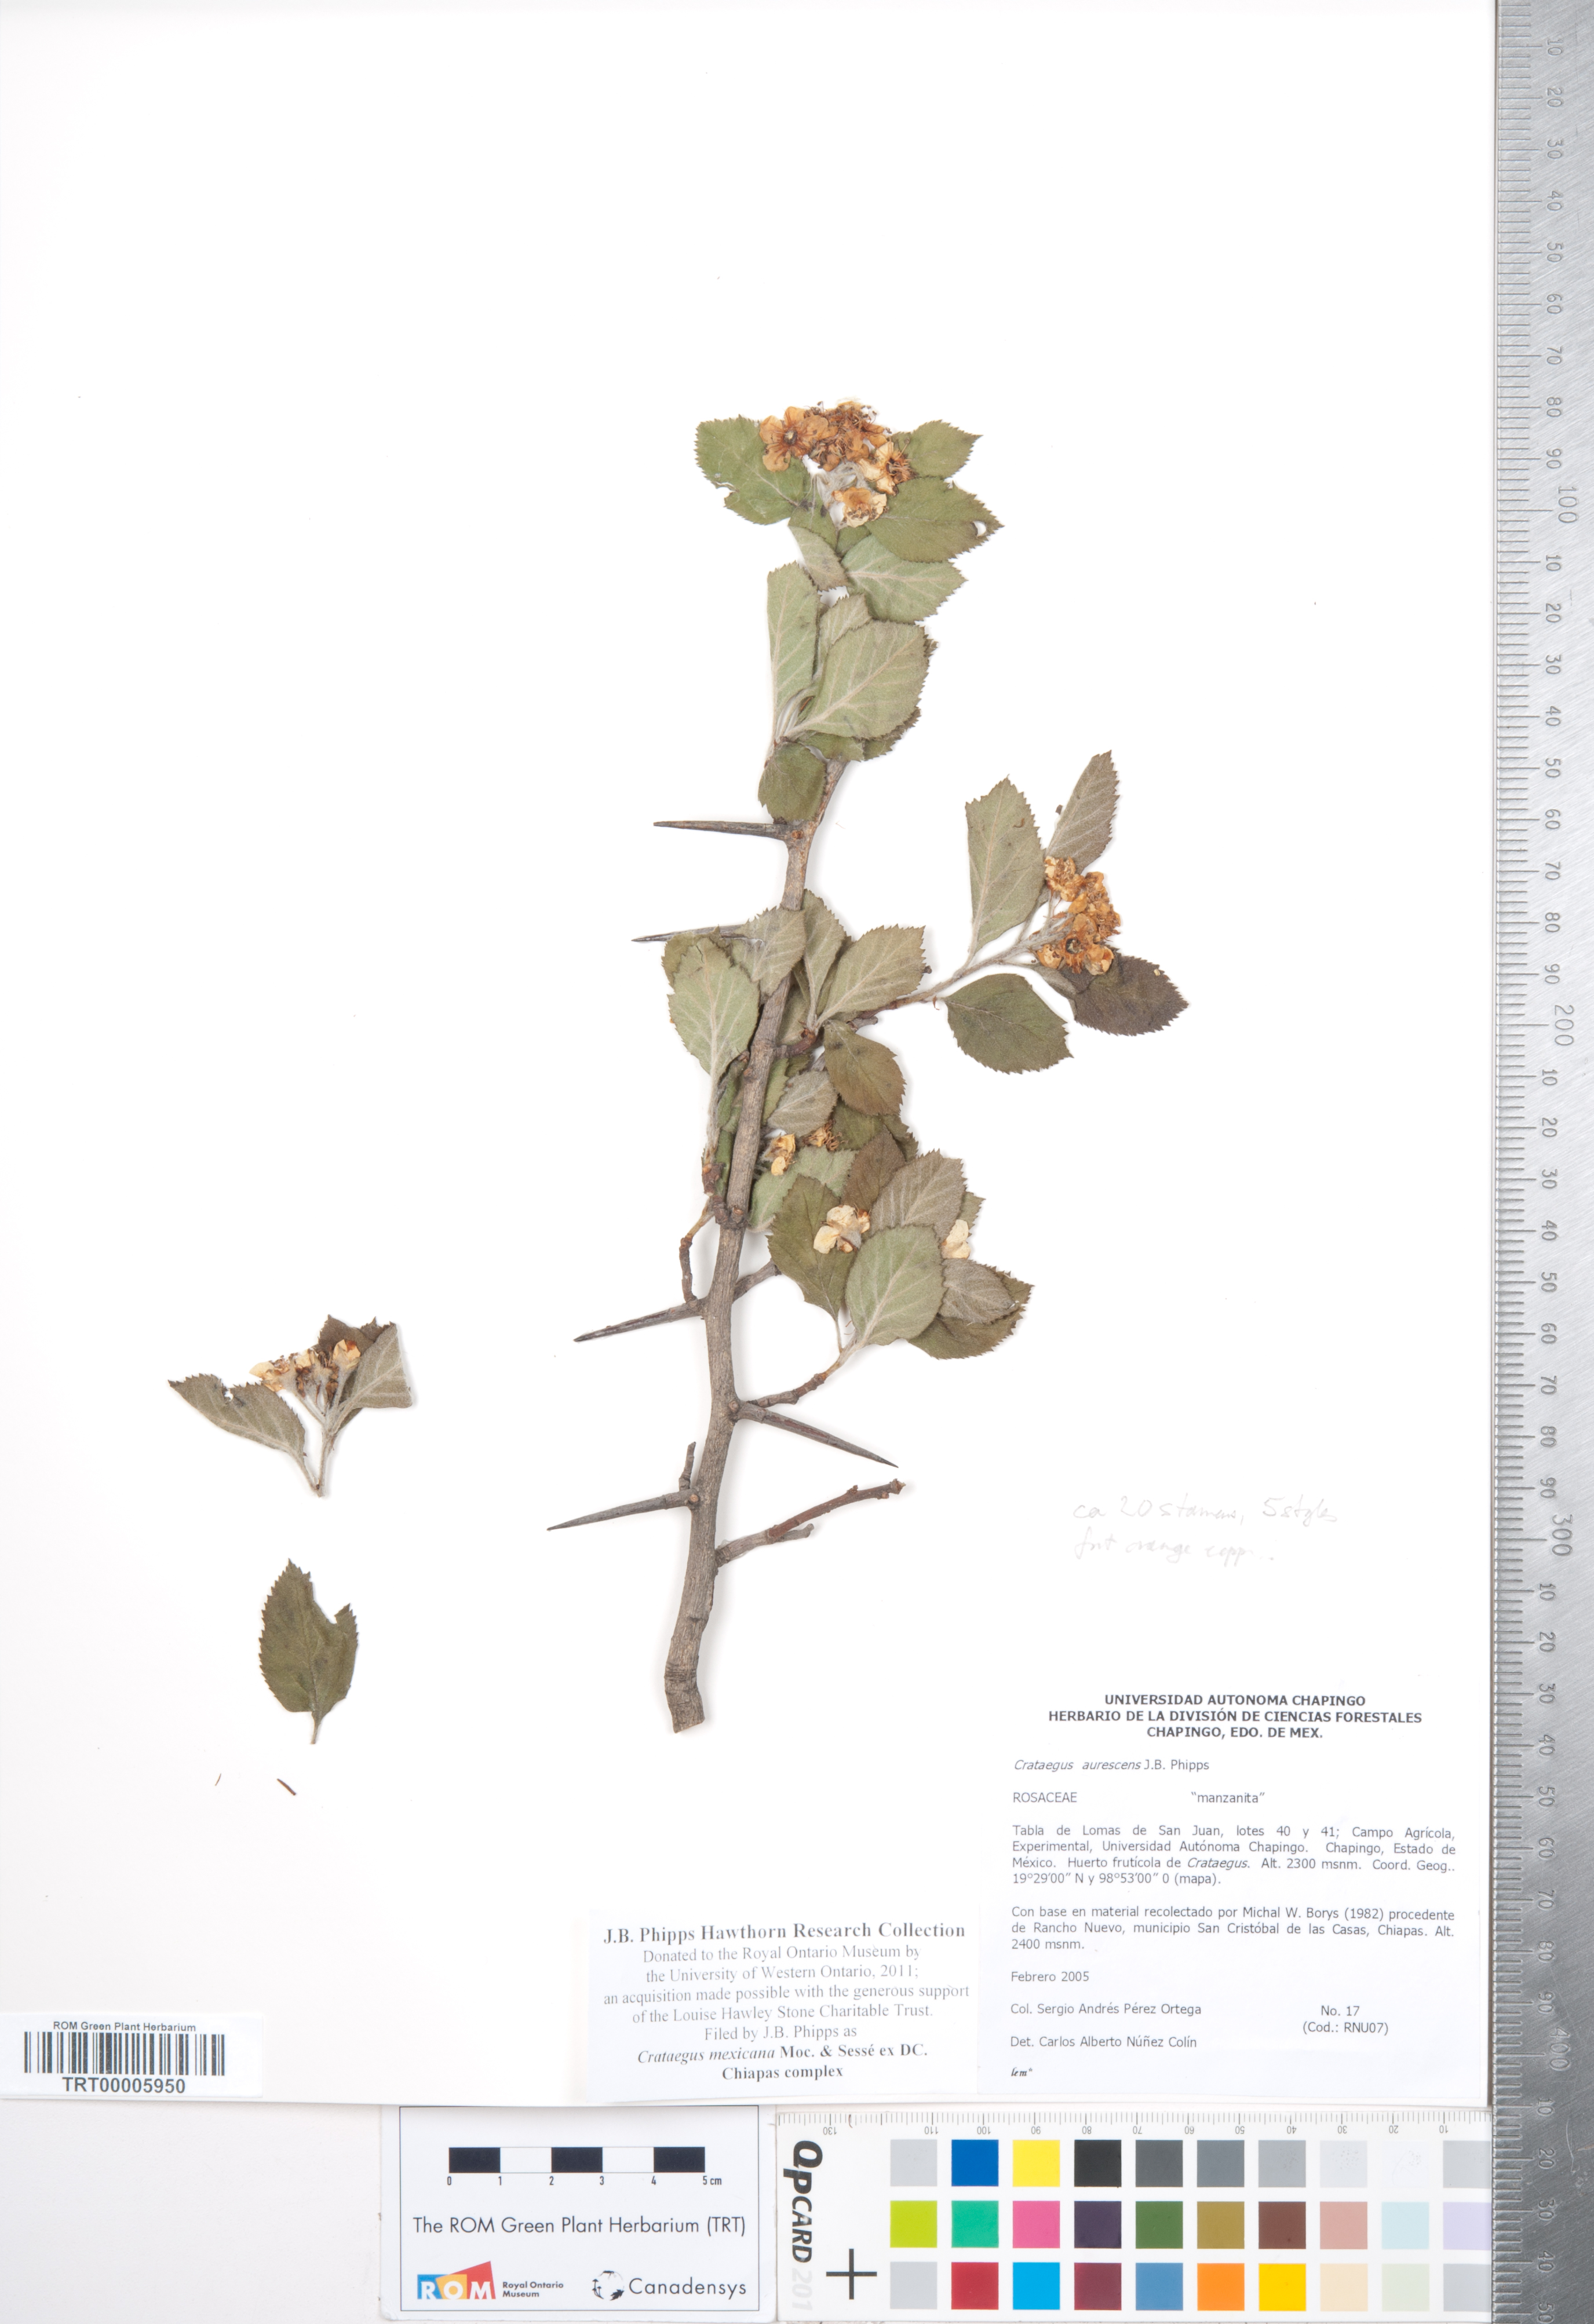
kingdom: Plantae
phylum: Tracheophyta
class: Magnoliopsida
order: Rosales
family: Rosaceae
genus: Crataegus
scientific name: Crataegus mexicana
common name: Mexican hawthorn
